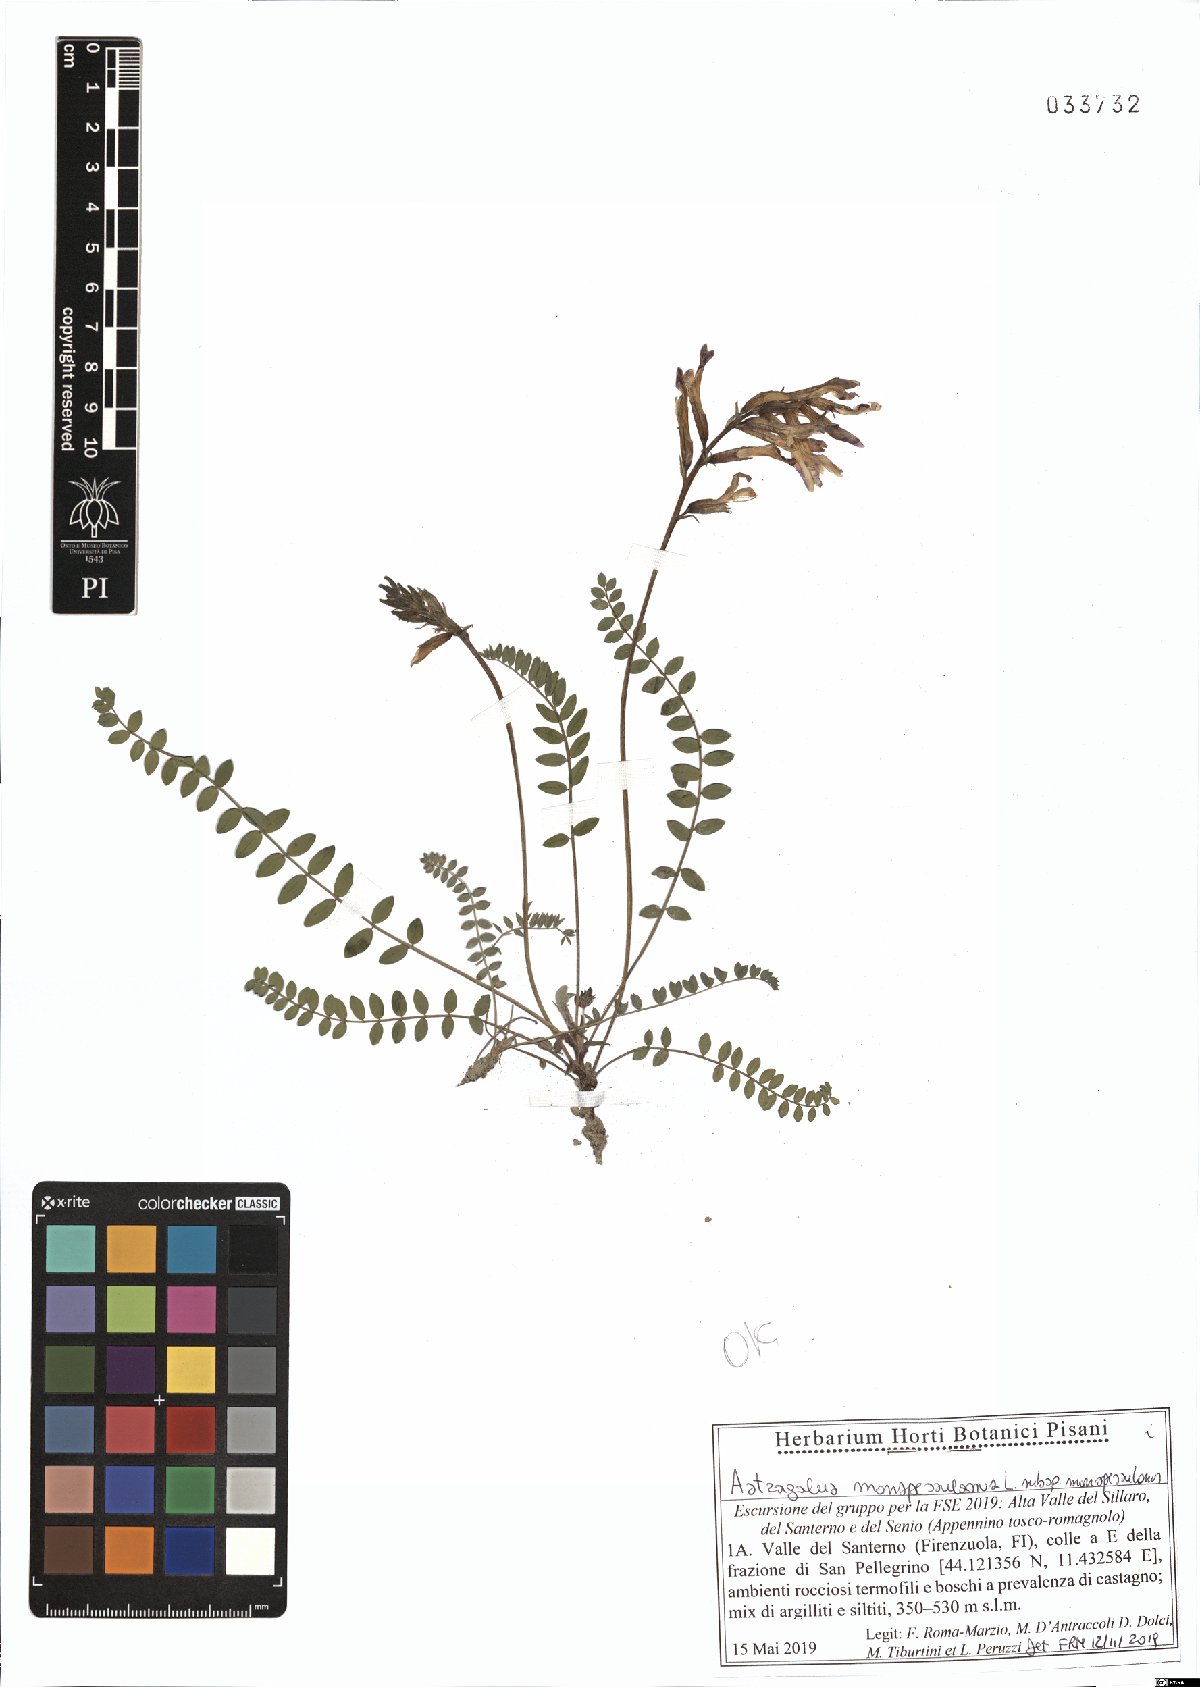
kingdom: Plantae
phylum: Tracheophyta
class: Magnoliopsida
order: Fabales
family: Fabaceae
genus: Astragalus
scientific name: Astragalus monspessulanus
